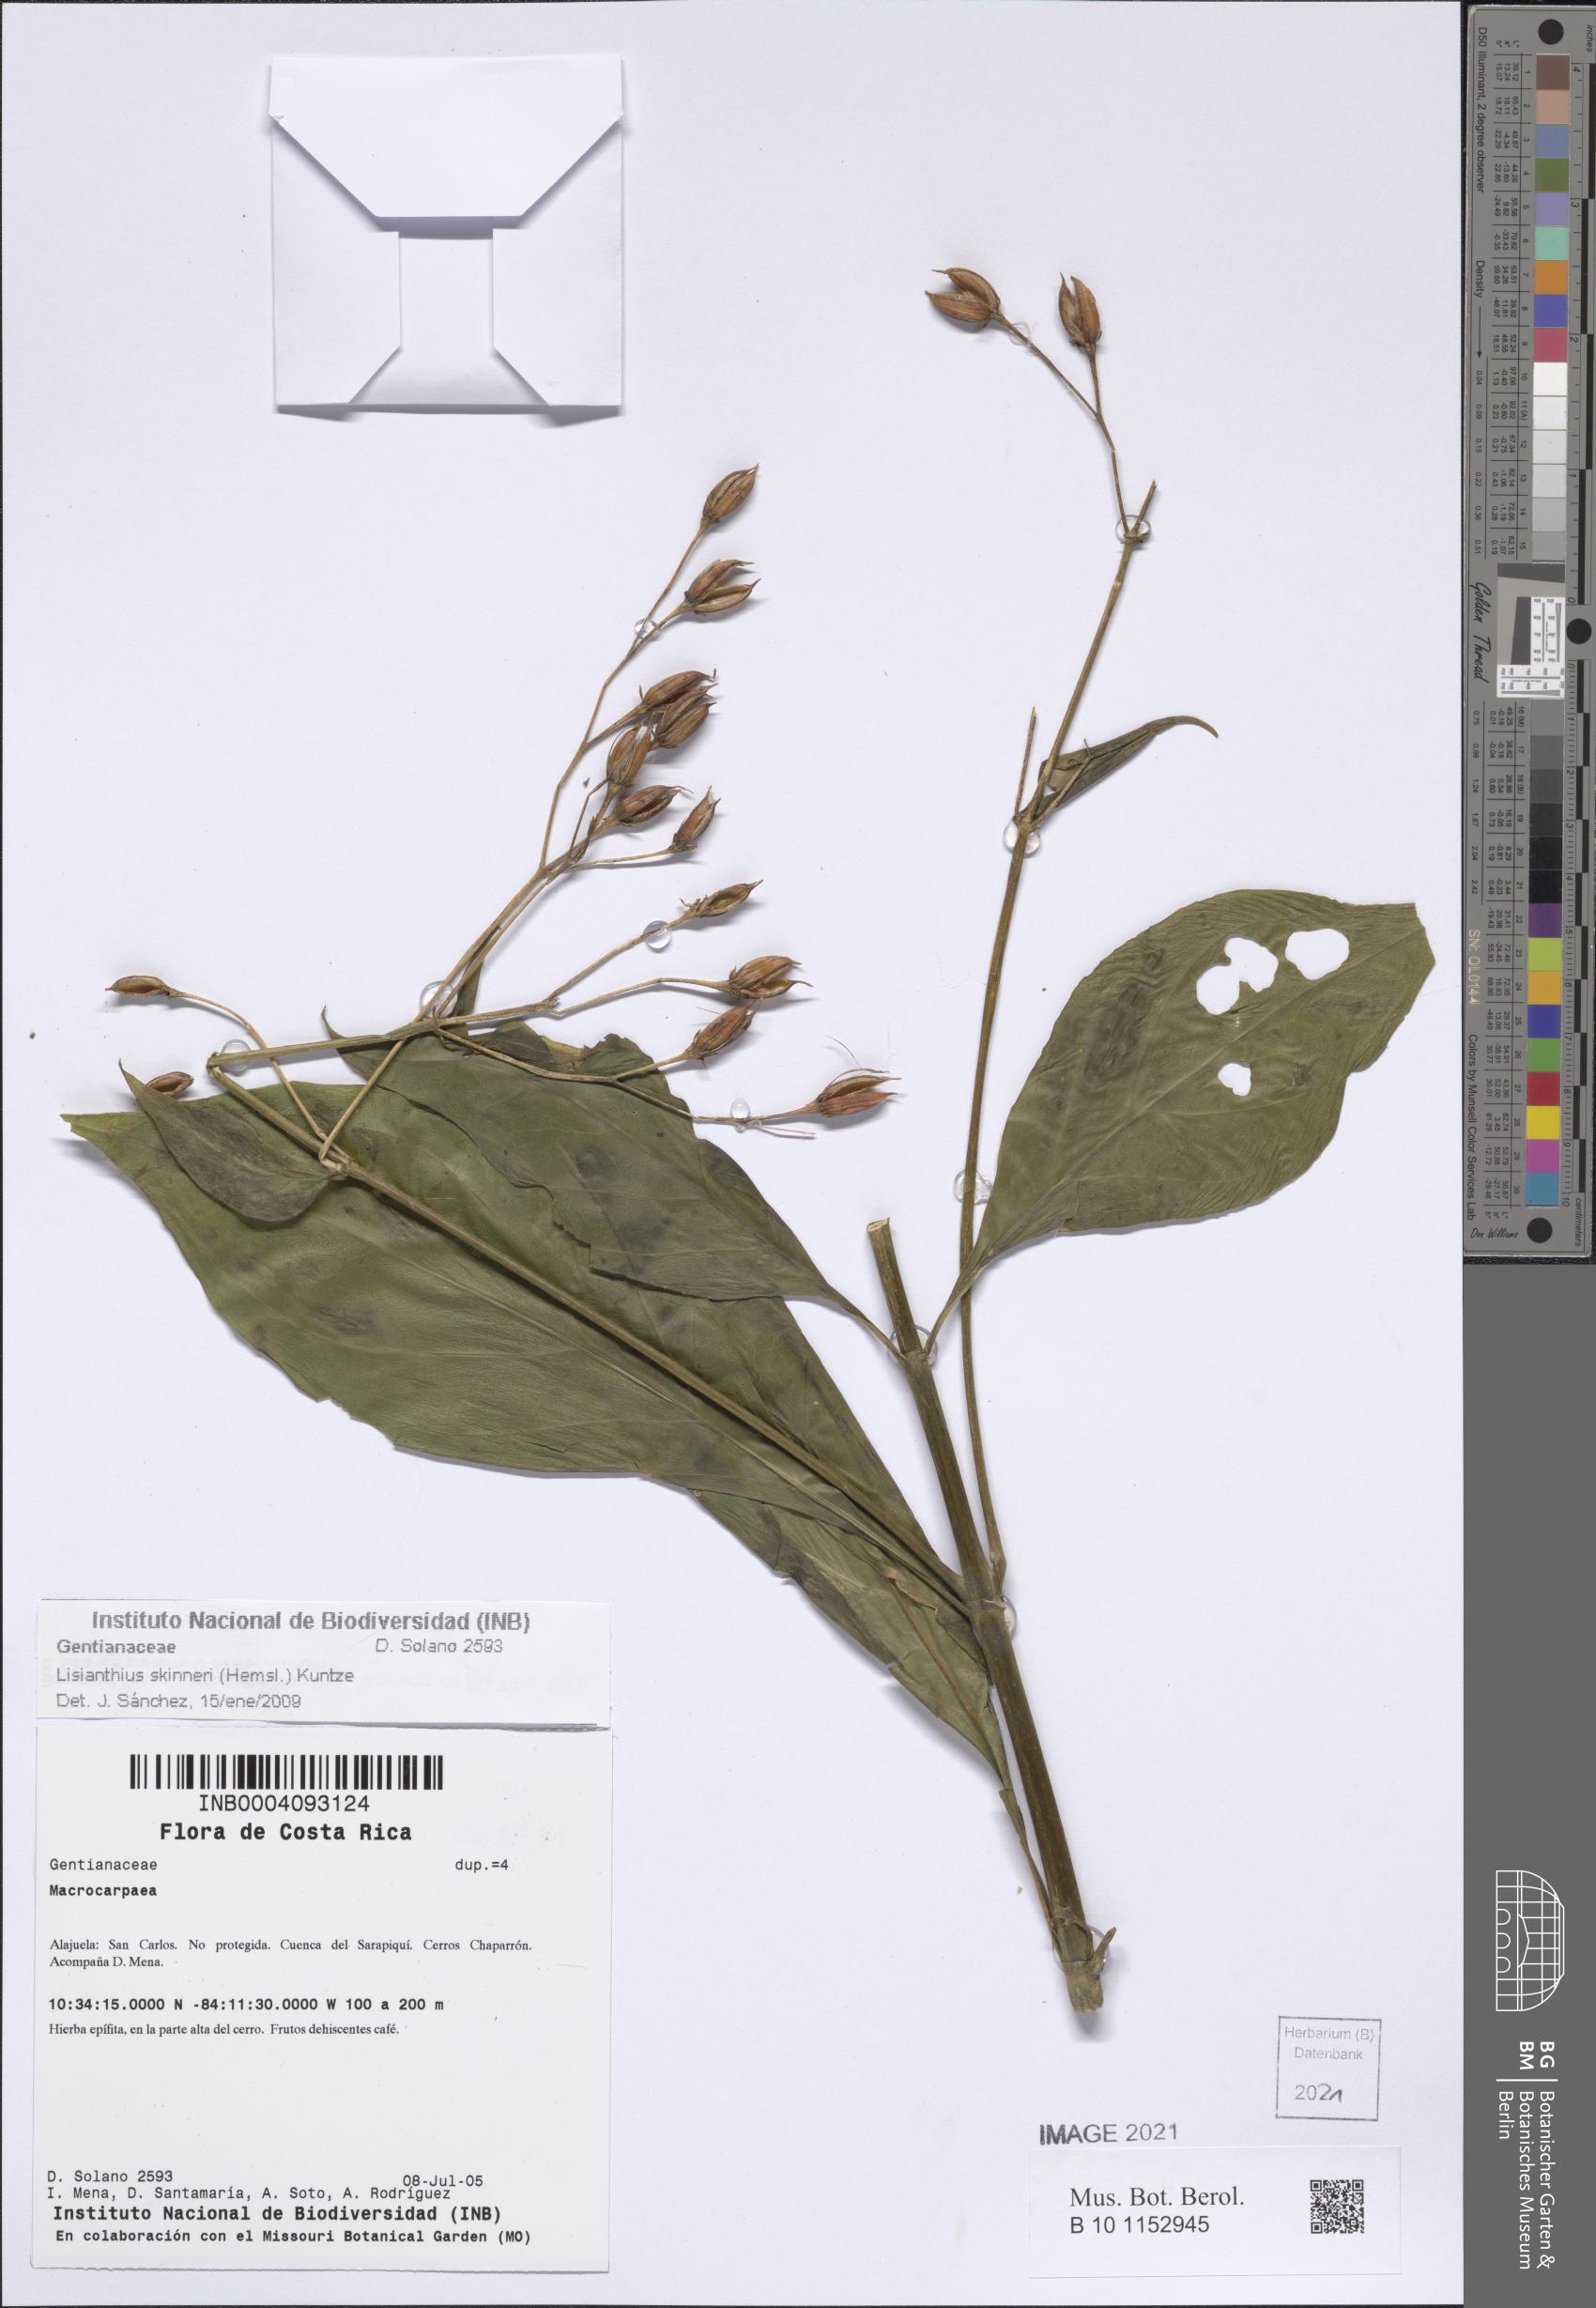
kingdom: Plantae
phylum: Tracheophyta
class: Magnoliopsida
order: Gentianales
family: Gentianaceae
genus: Lisianthus
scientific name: Lisianthus skinneri
